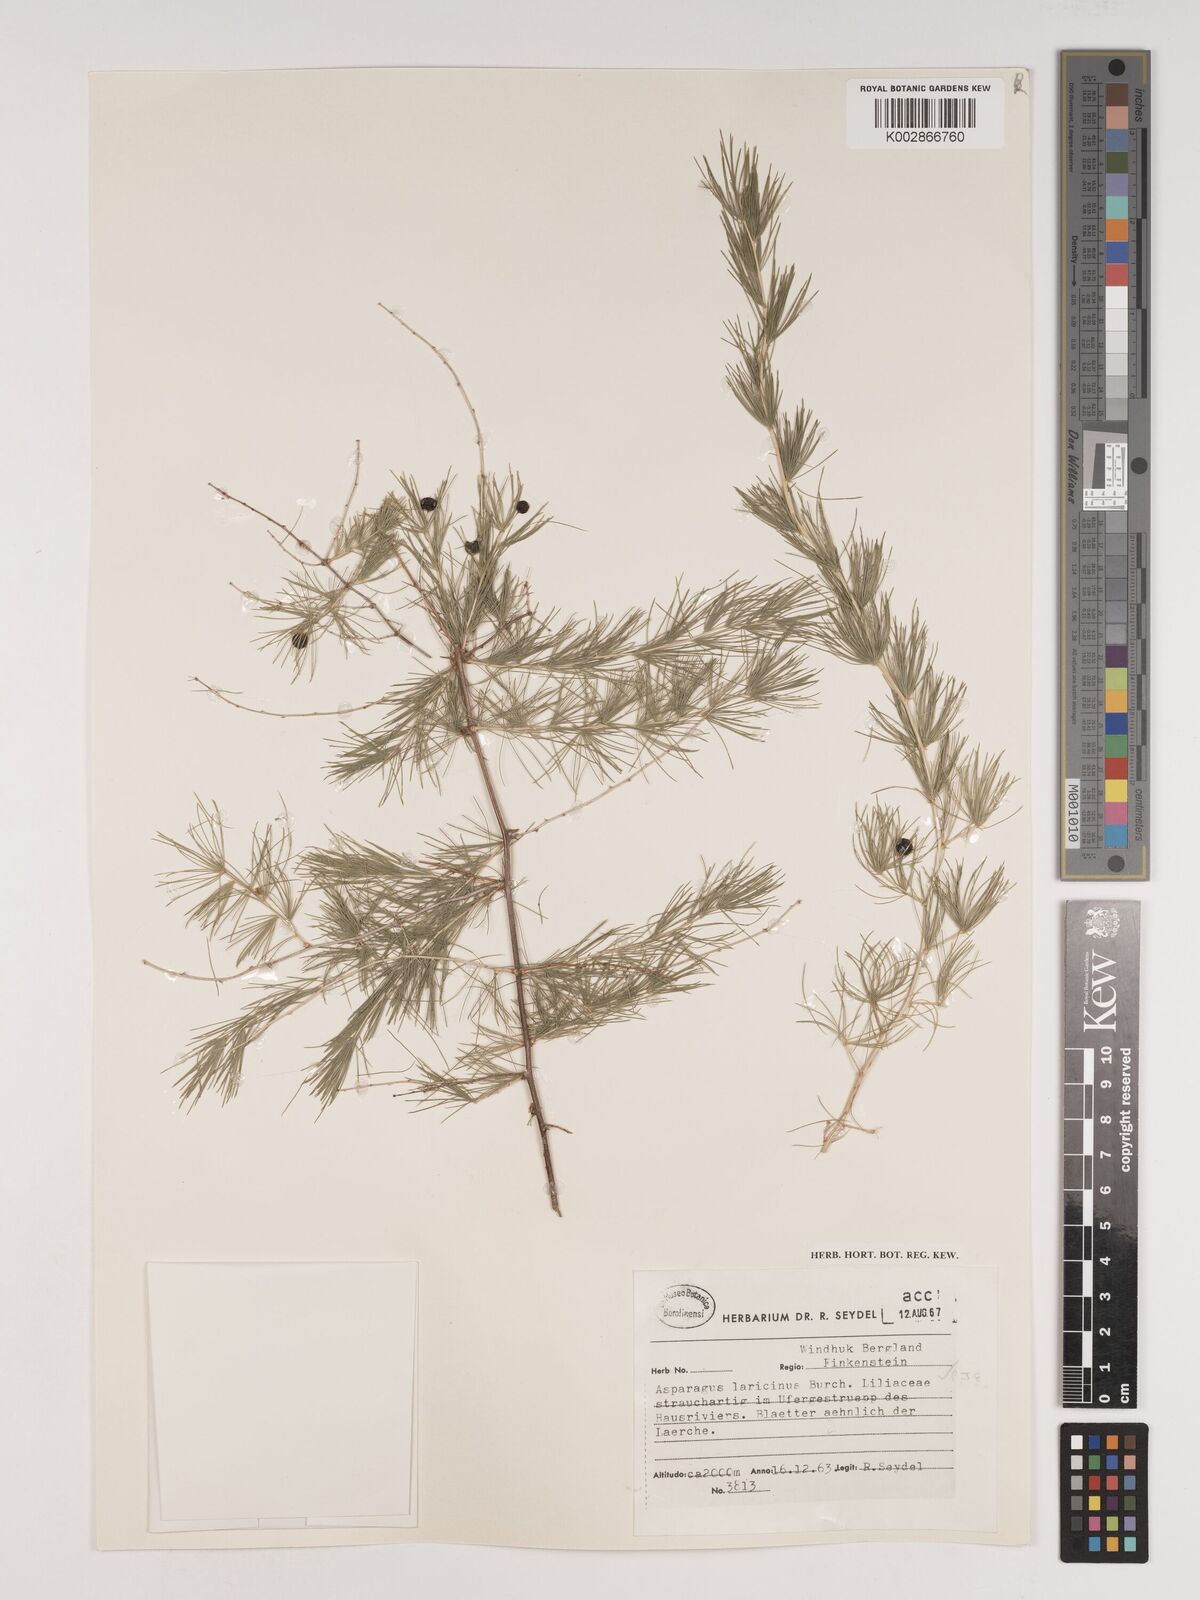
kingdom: Plantae
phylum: Tracheophyta
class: Liliopsida
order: Asparagales
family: Asparagaceae
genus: Asparagus
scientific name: Asparagus laricinus
